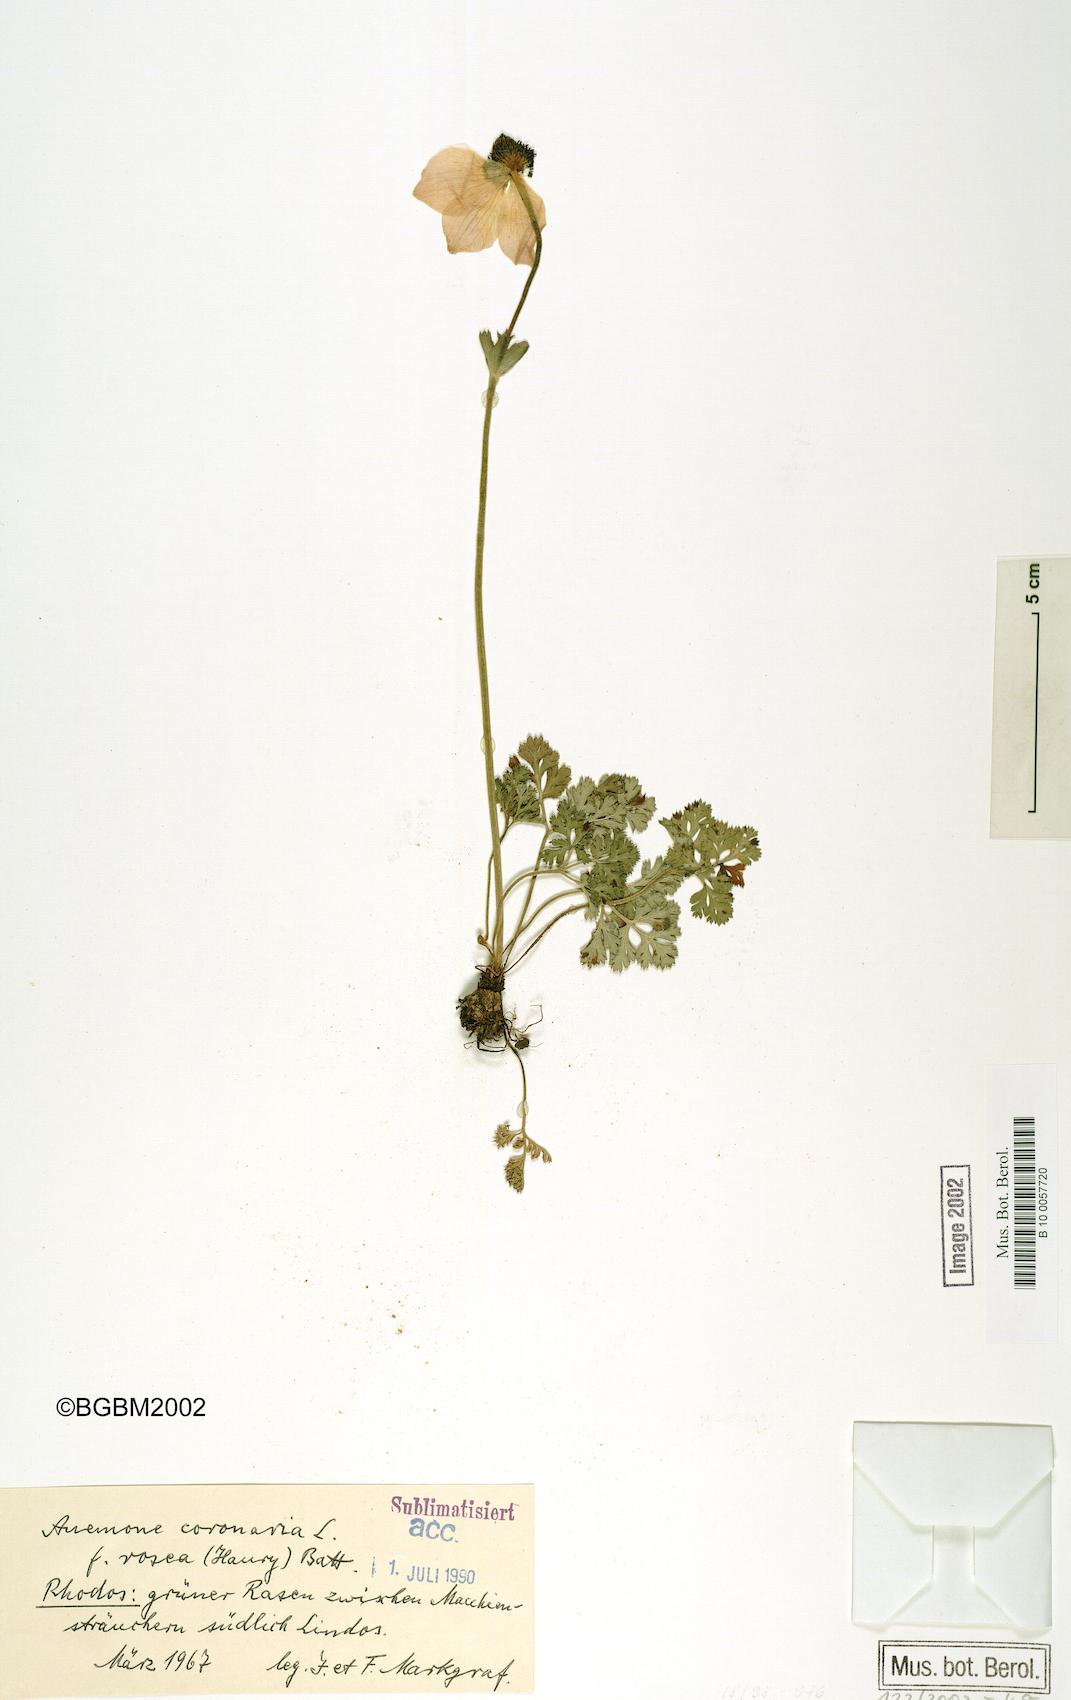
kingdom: Plantae
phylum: Tracheophyta
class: Magnoliopsida
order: Ranunculales
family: Ranunculaceae
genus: Anemone
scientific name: Anemone coronaria
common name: Poppy anemone
